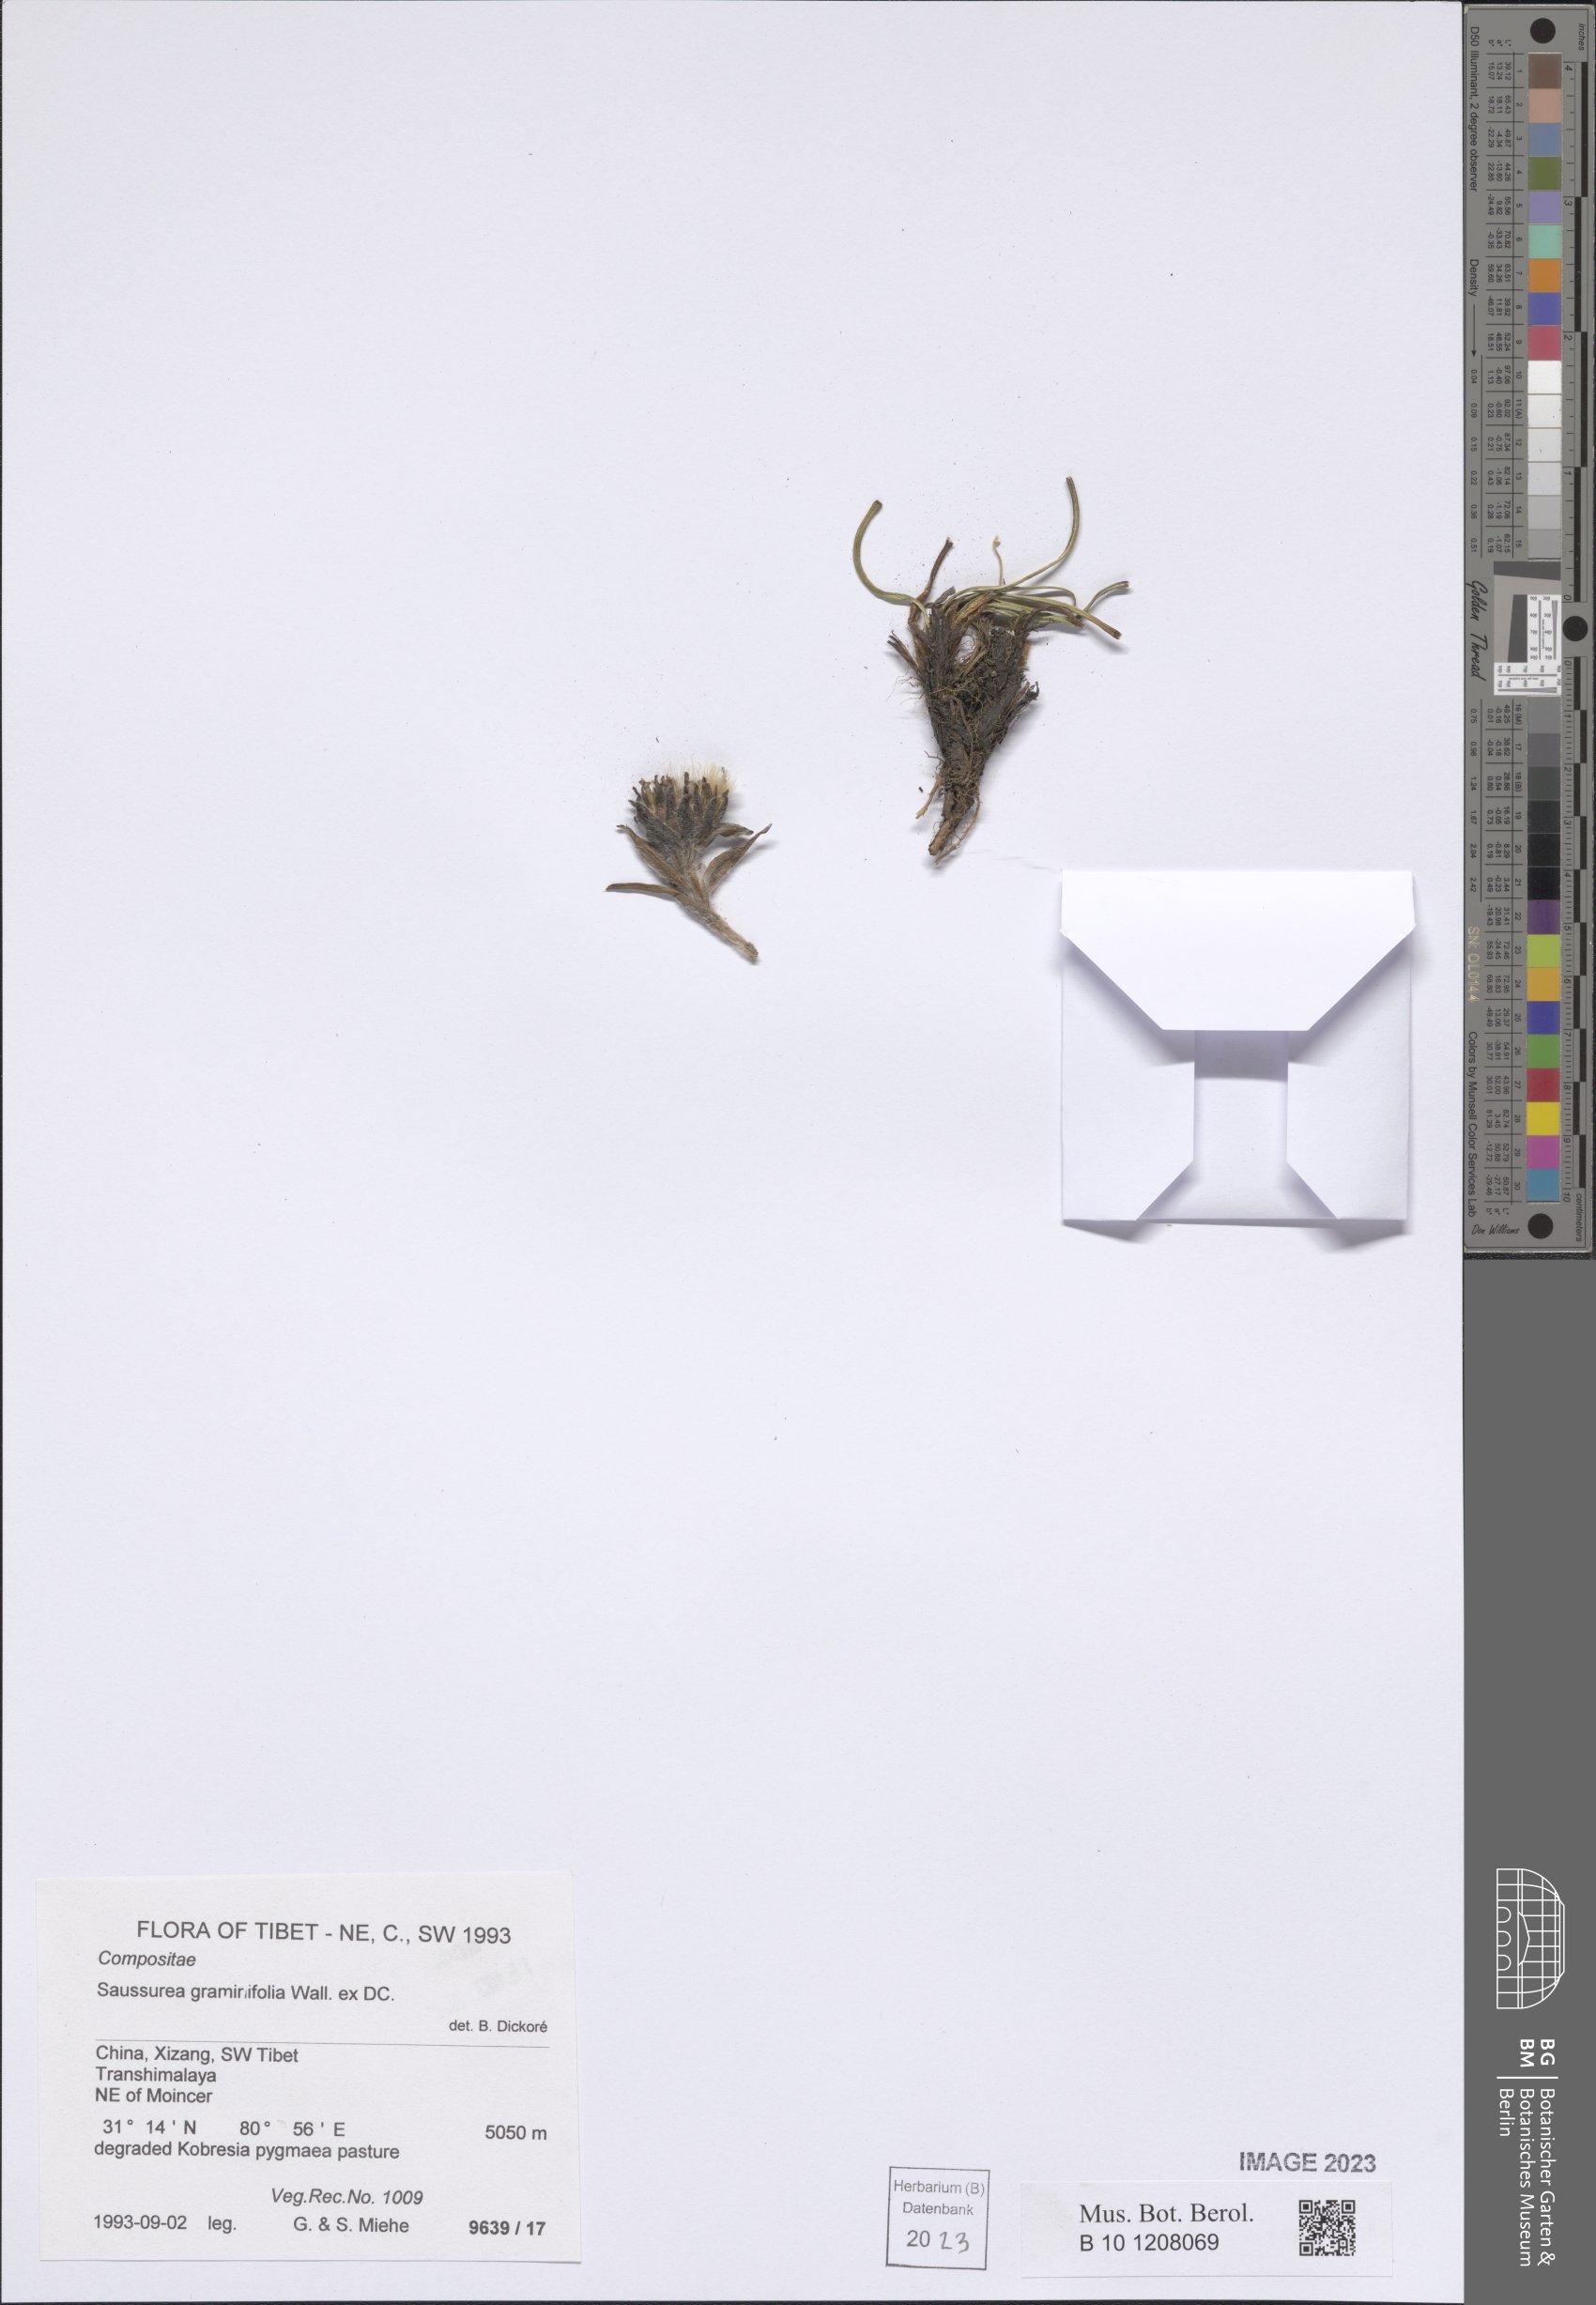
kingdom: Plantae
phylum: Tracheophyta
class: Magnoliopsida
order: Asterales
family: Asteraceae
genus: Saussurea
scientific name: Saussurea graminifolia
